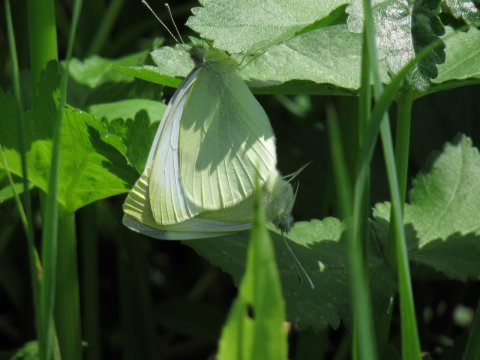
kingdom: Animalia
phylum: Arthropoda
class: Insecta
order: Lepidoptera
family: Pieridae
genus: Pieris
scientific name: Pieris rapae
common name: Cabbage White
